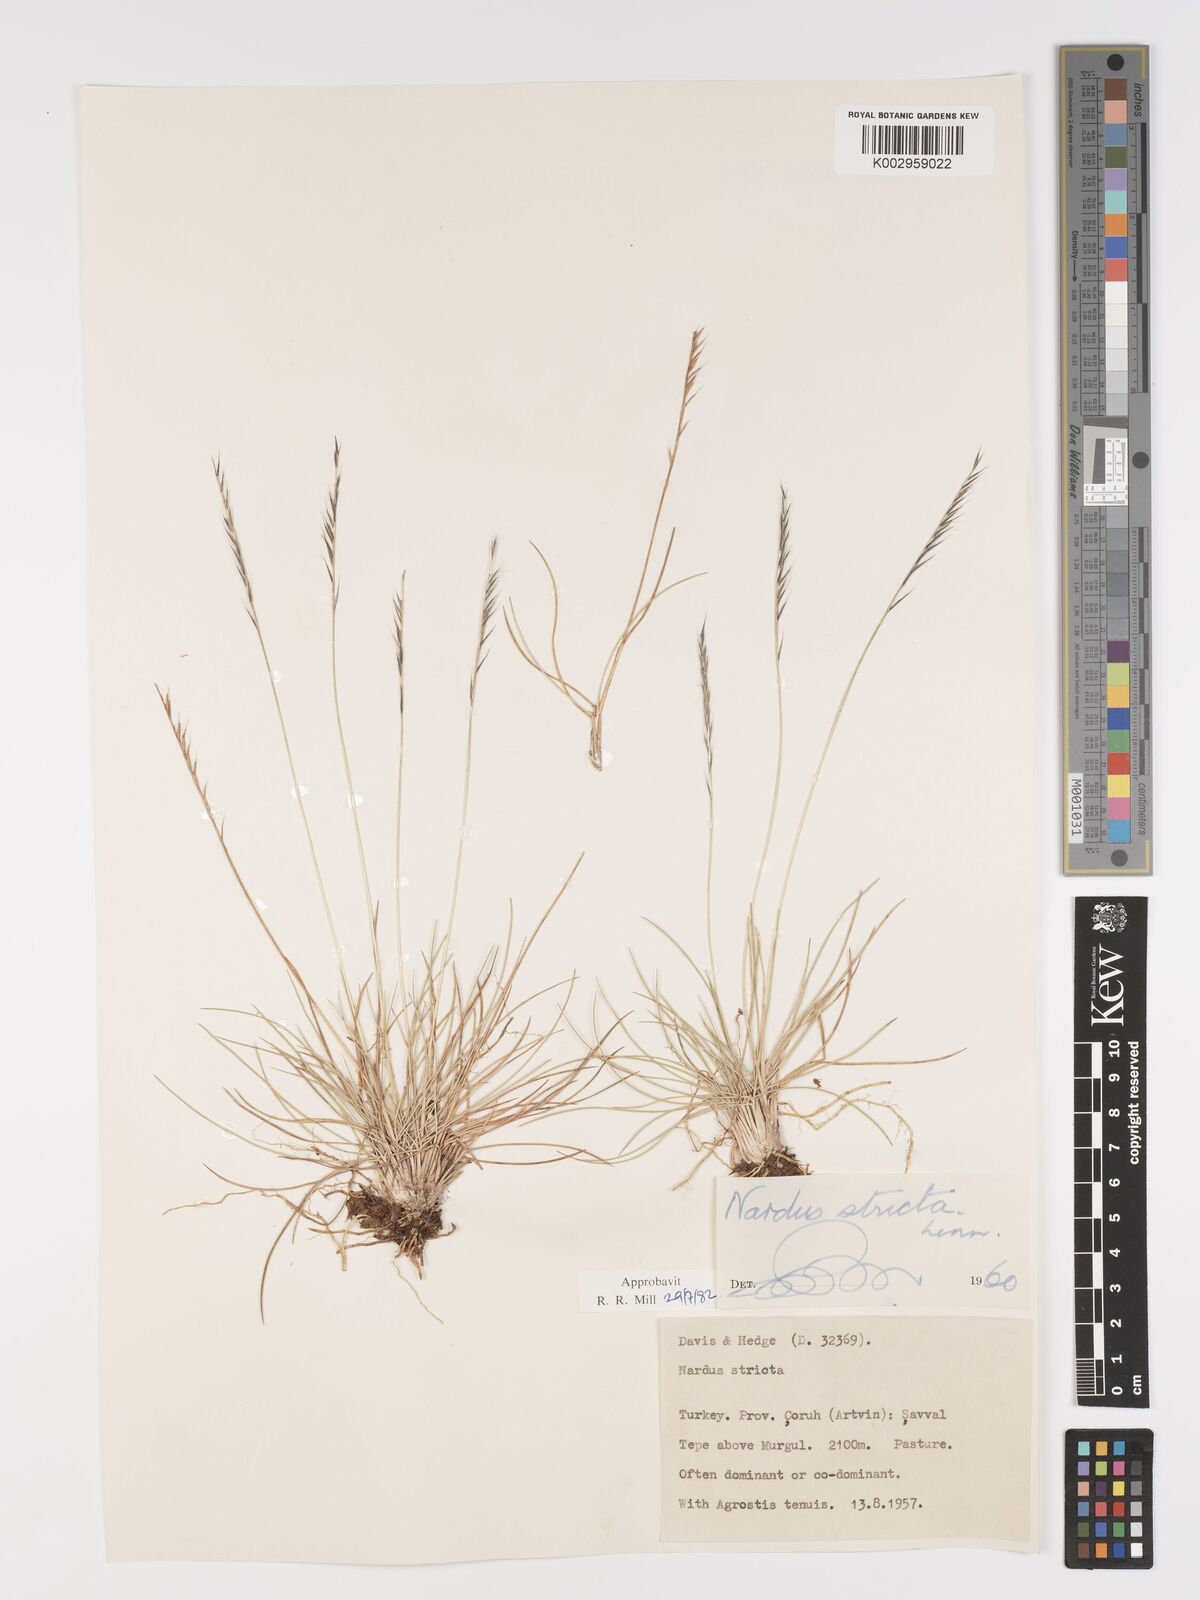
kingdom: Plantae
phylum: Tracheophyta
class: Liliopsida
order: Poales
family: Poaceae
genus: Nardus
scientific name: Nardus stricta
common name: Mat-grass
